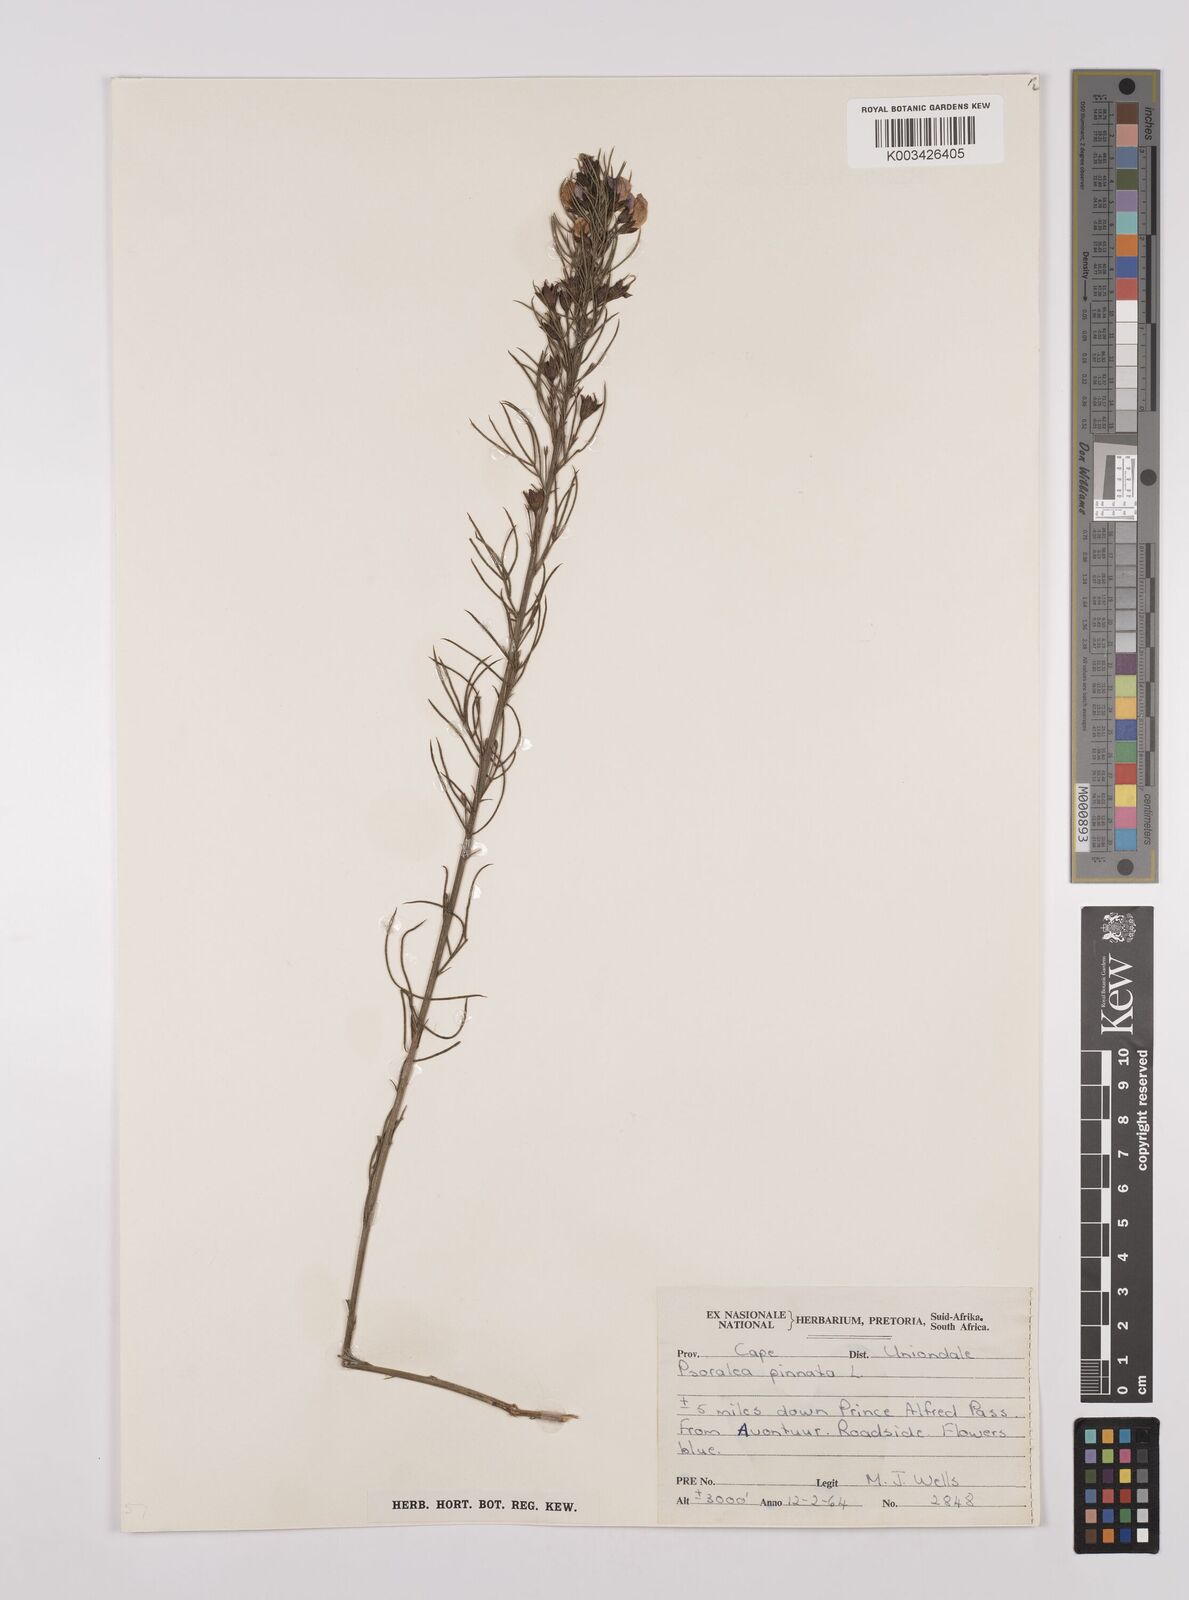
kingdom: Plantae
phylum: Tracheophyta
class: Magnoliopsida
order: Fabales
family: Fabaceae
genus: Psoralea
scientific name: Psoralea sordida
